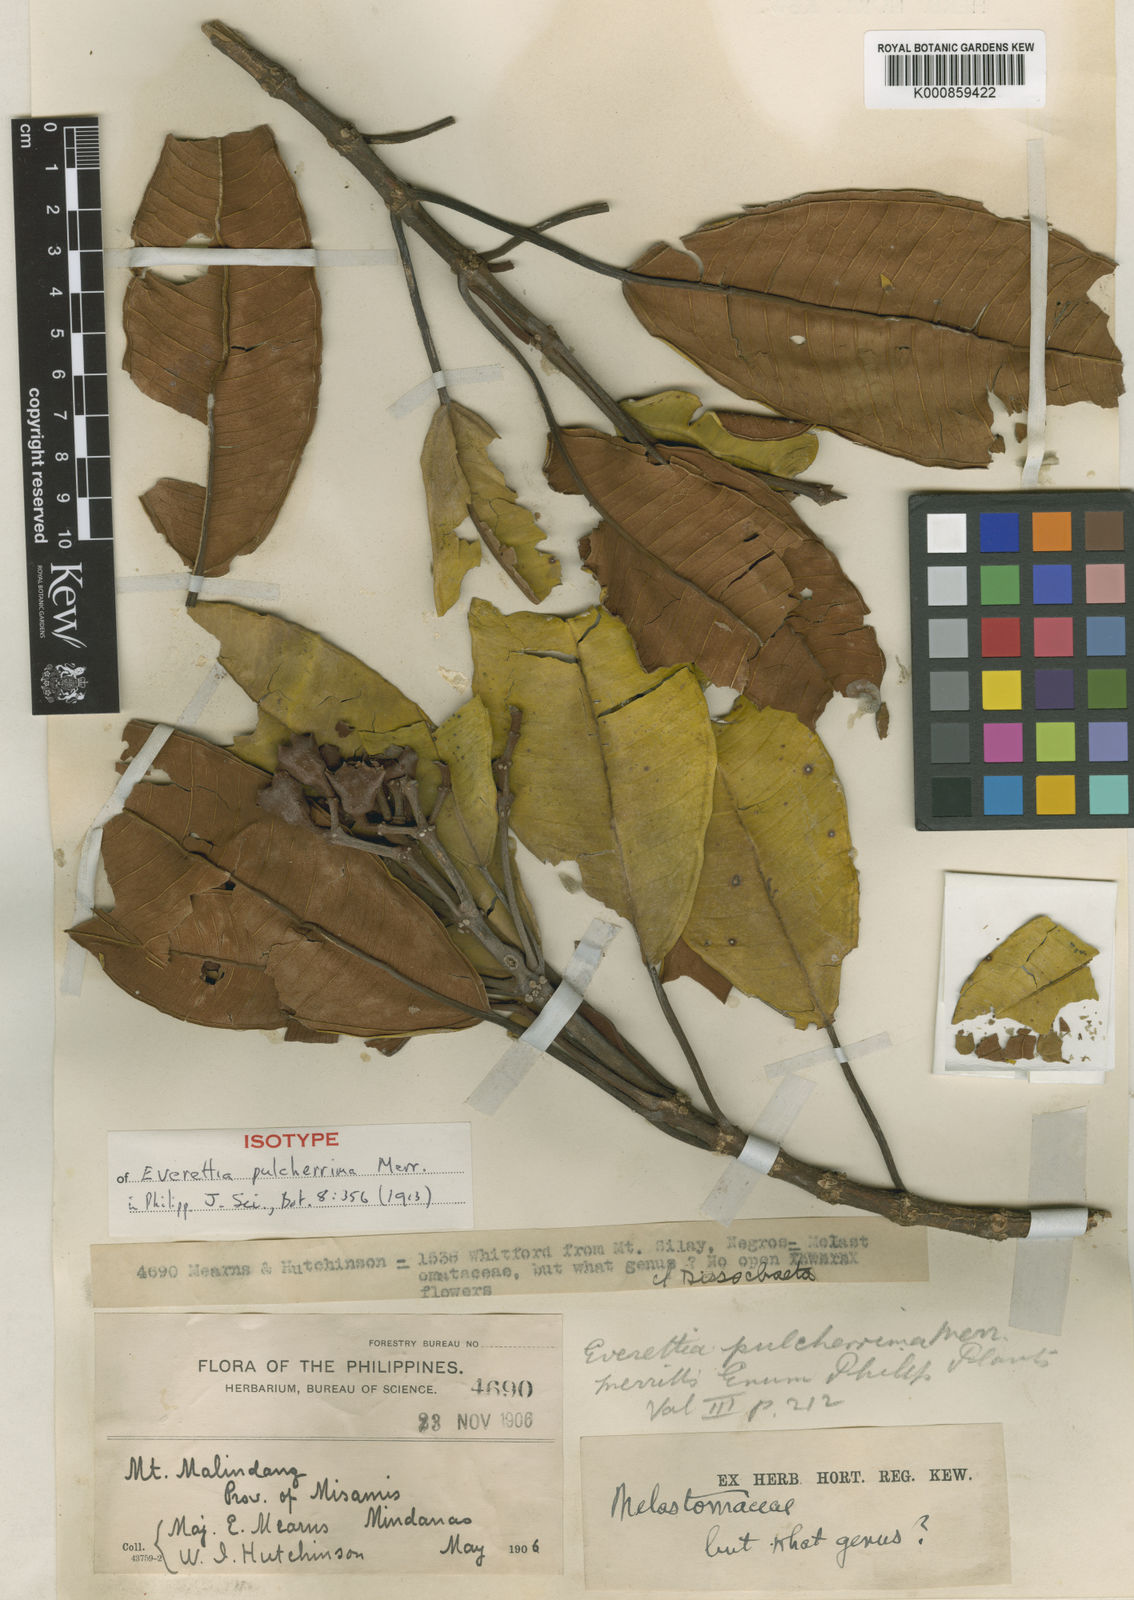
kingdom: Plantae
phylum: Tracheophyta
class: Magnoliopsida
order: Myrtales
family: Melastomataceae
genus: Beccarianthus
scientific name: Beccarianthus pulcherrimus
